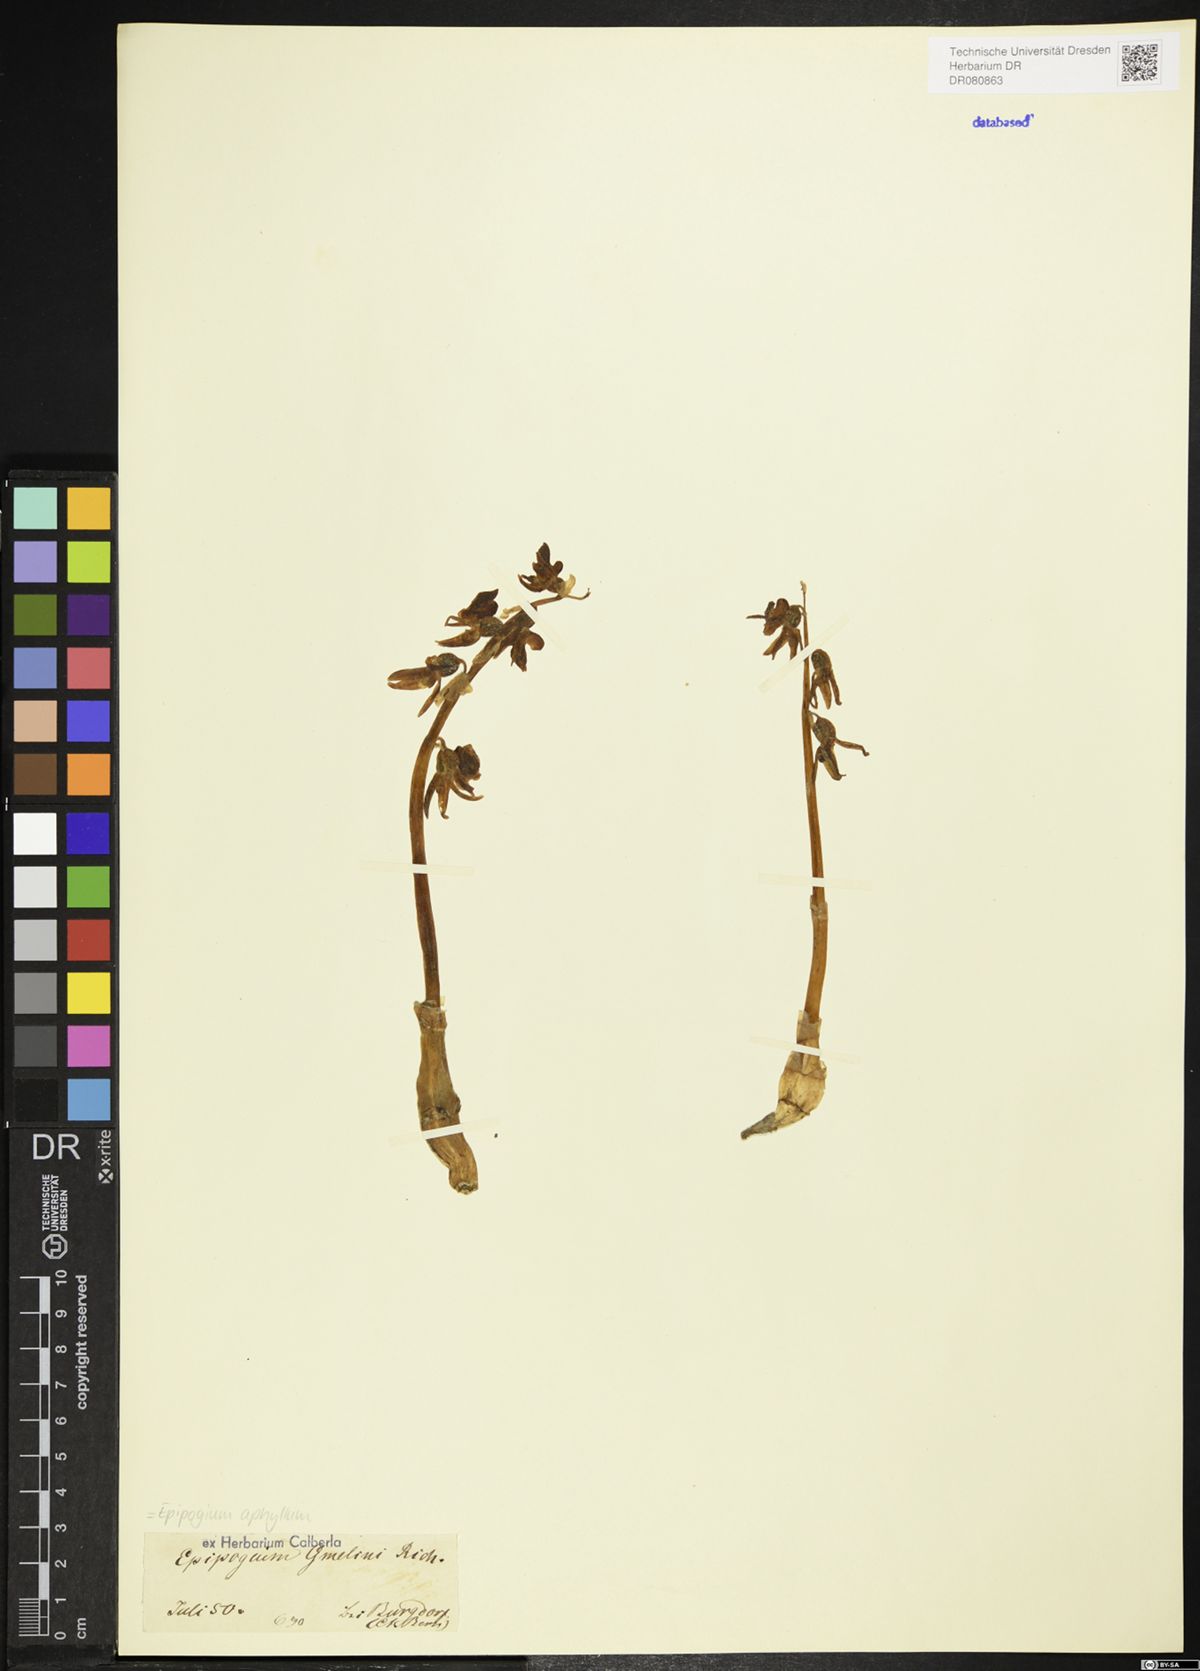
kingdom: Plantae
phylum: Tracheophyta
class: Liliopsida
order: Asparagales
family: Orchidaceae
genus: Epipogium
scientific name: Epipogium aphyllum
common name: Ghost orchid
